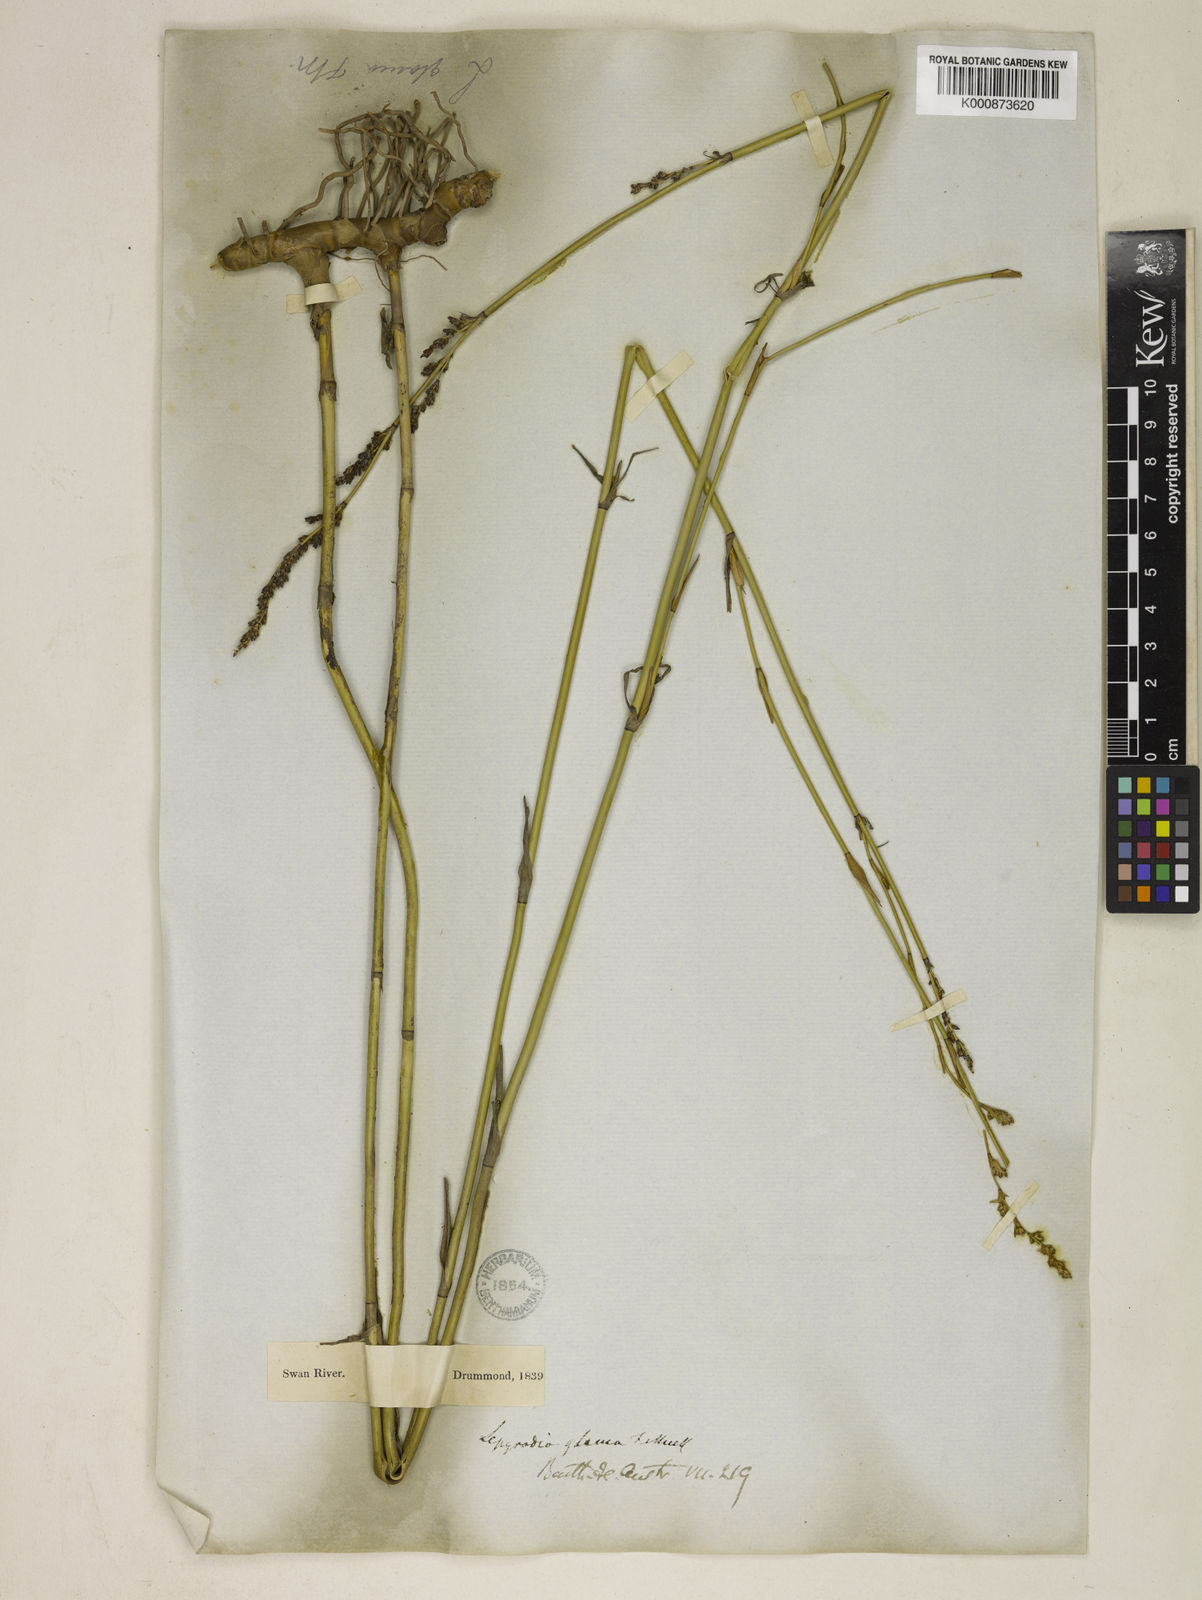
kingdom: Plantae
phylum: Tracheophyta
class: Liliopsida
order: Poales
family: Restionaceae
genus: Lepyrodia
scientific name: Lepyrodia glauca
